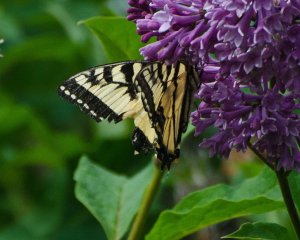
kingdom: Animalia
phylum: Arthropoda
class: Insecta
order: Lepidoptera
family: Papilionidae
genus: Pterourus
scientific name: Pterourus canadensis
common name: Canadian Tiger Swallowtail
